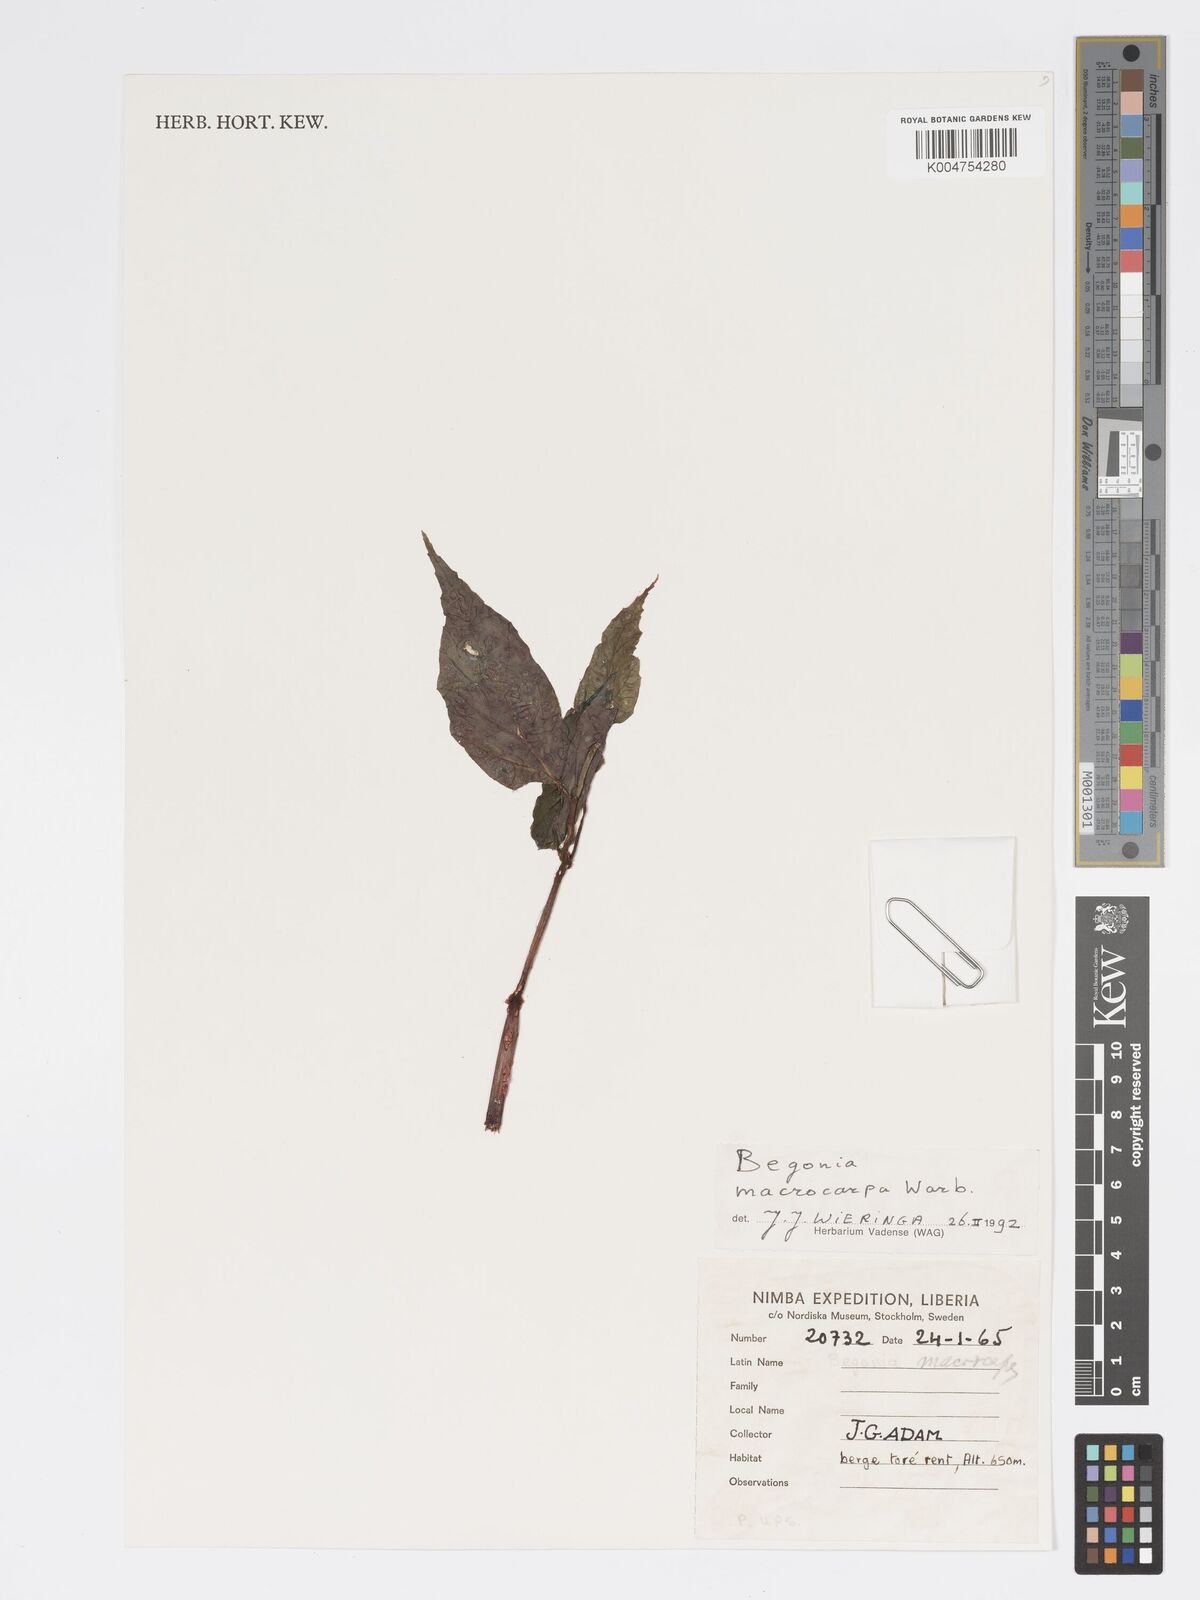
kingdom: Plantae
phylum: Tracheophyta
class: Magnoliopsida
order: Cucurbitales
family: Begoniaceae
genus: Begonia
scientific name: Begonia macrocarpa
